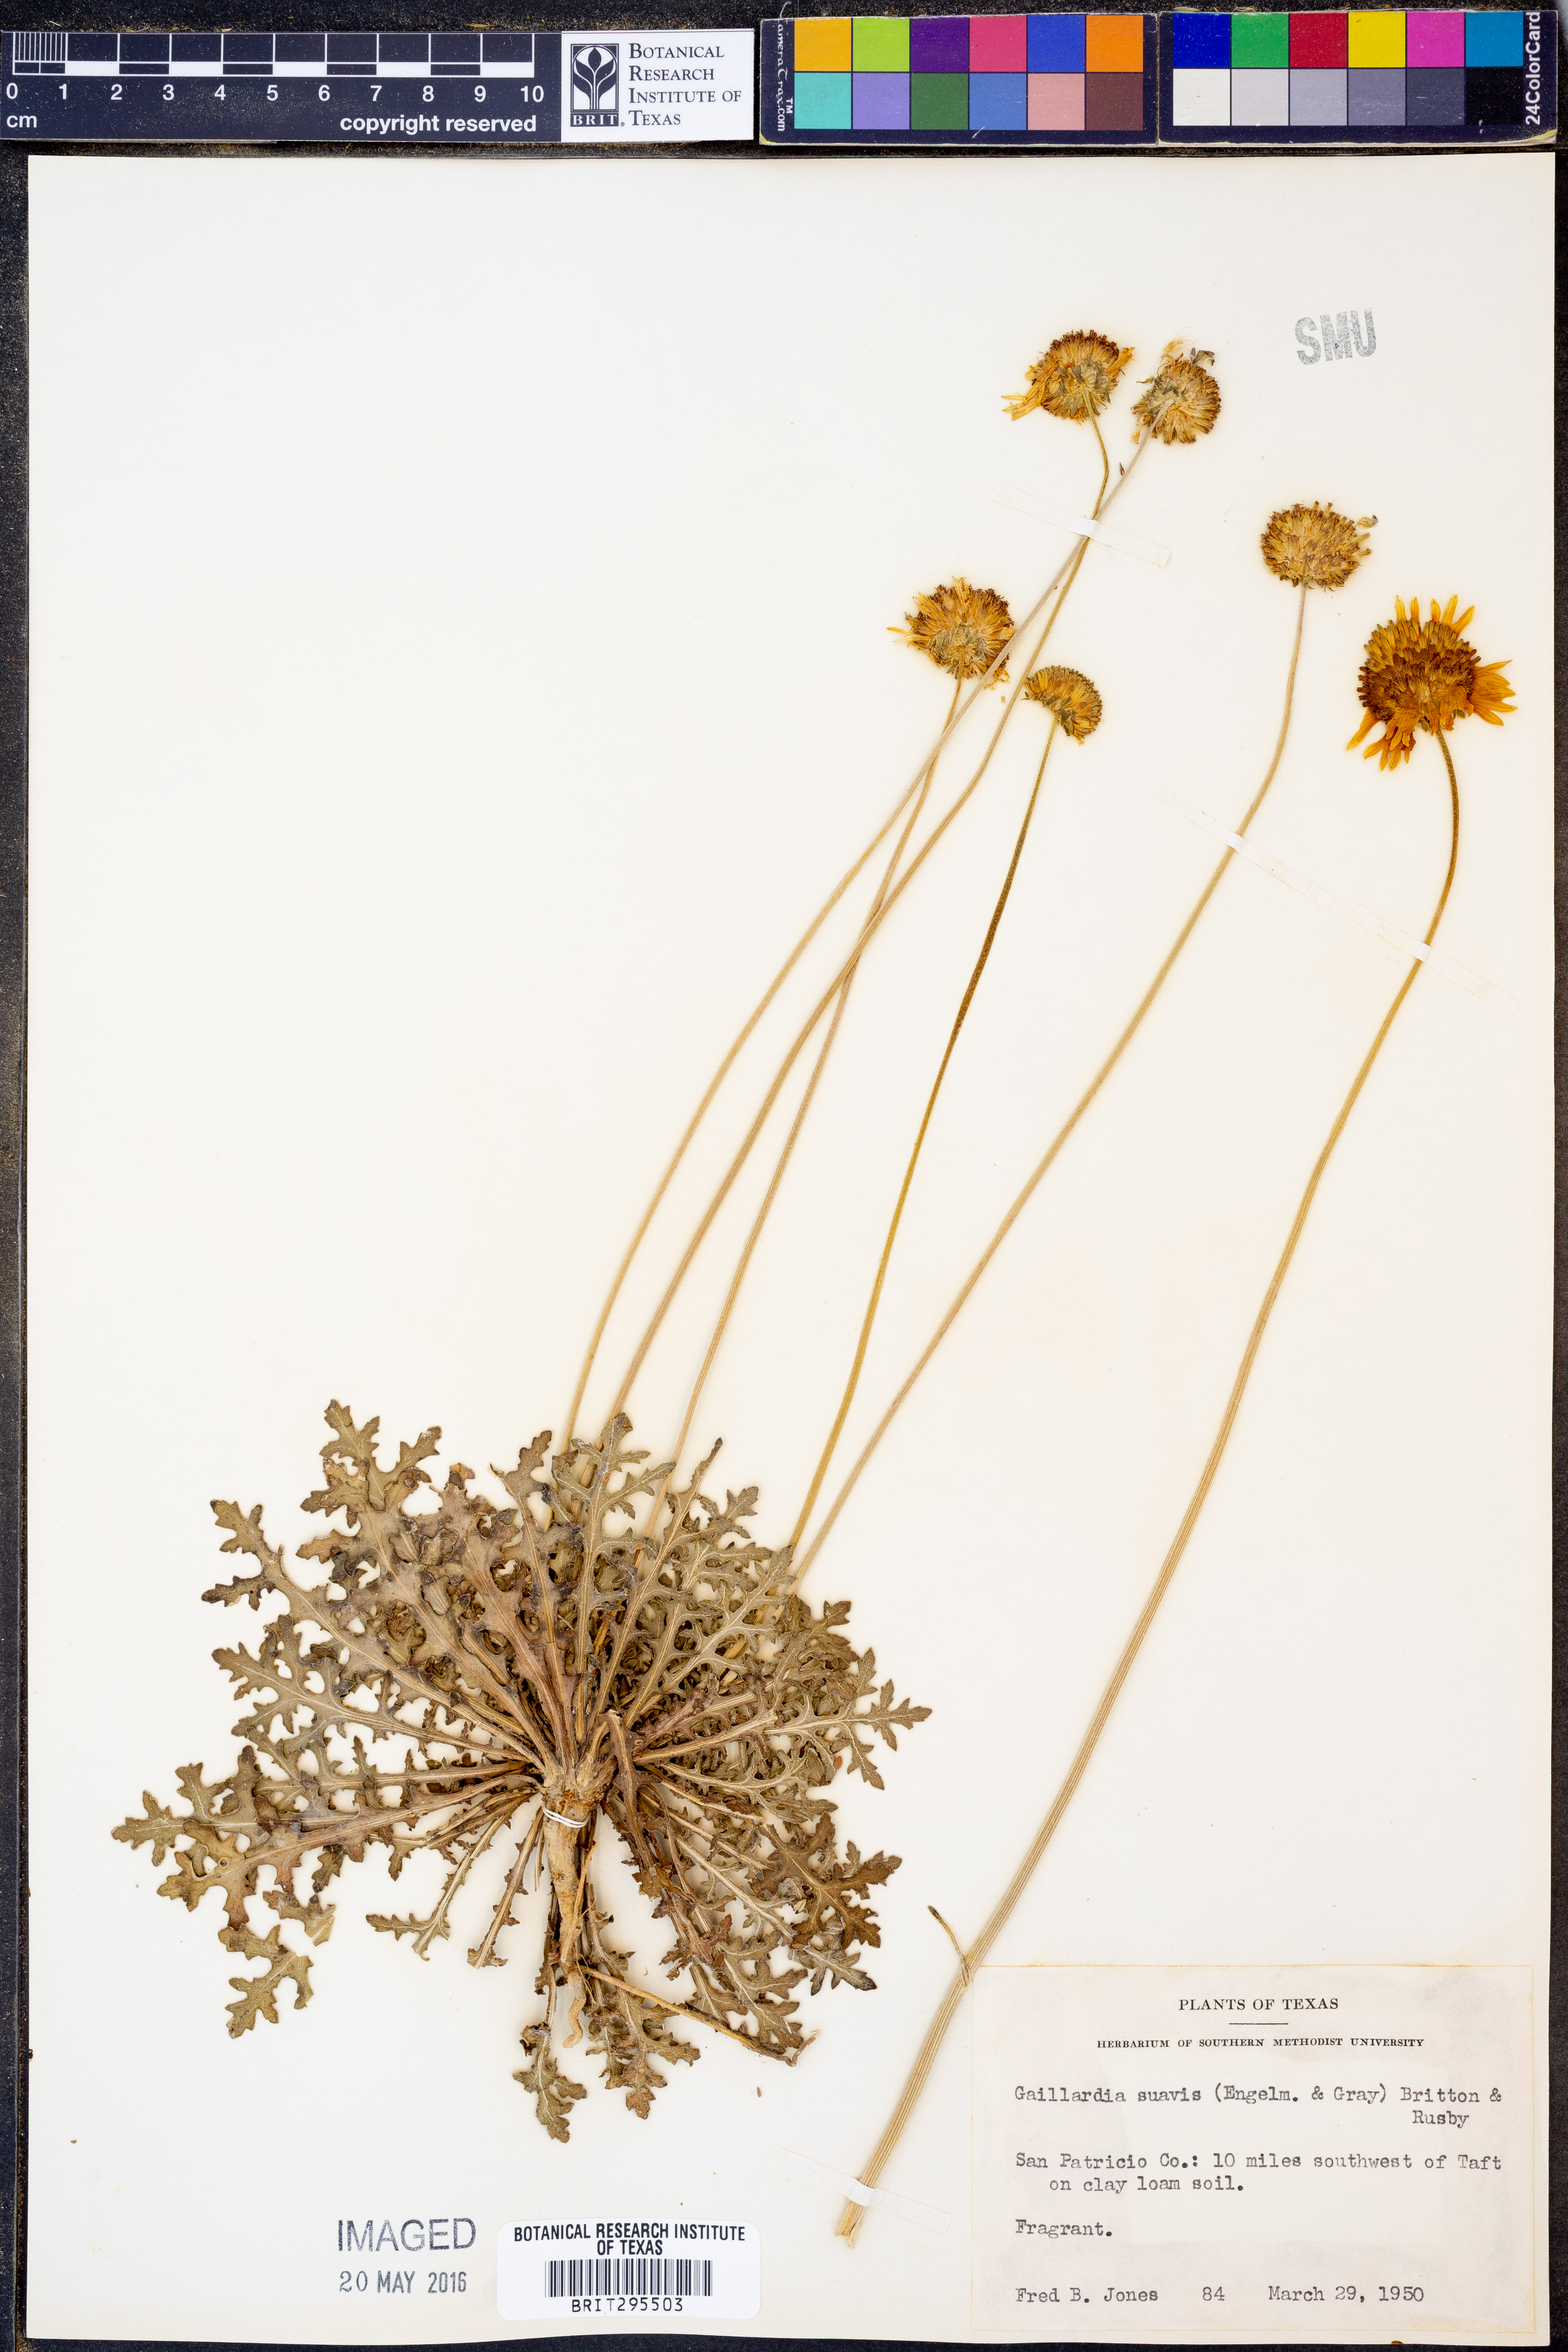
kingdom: Plantae
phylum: Tracheophyta
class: Magnoliopsida
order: Asterales
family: Asteraceae
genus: Gaillardia
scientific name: Gaillardia suavis
